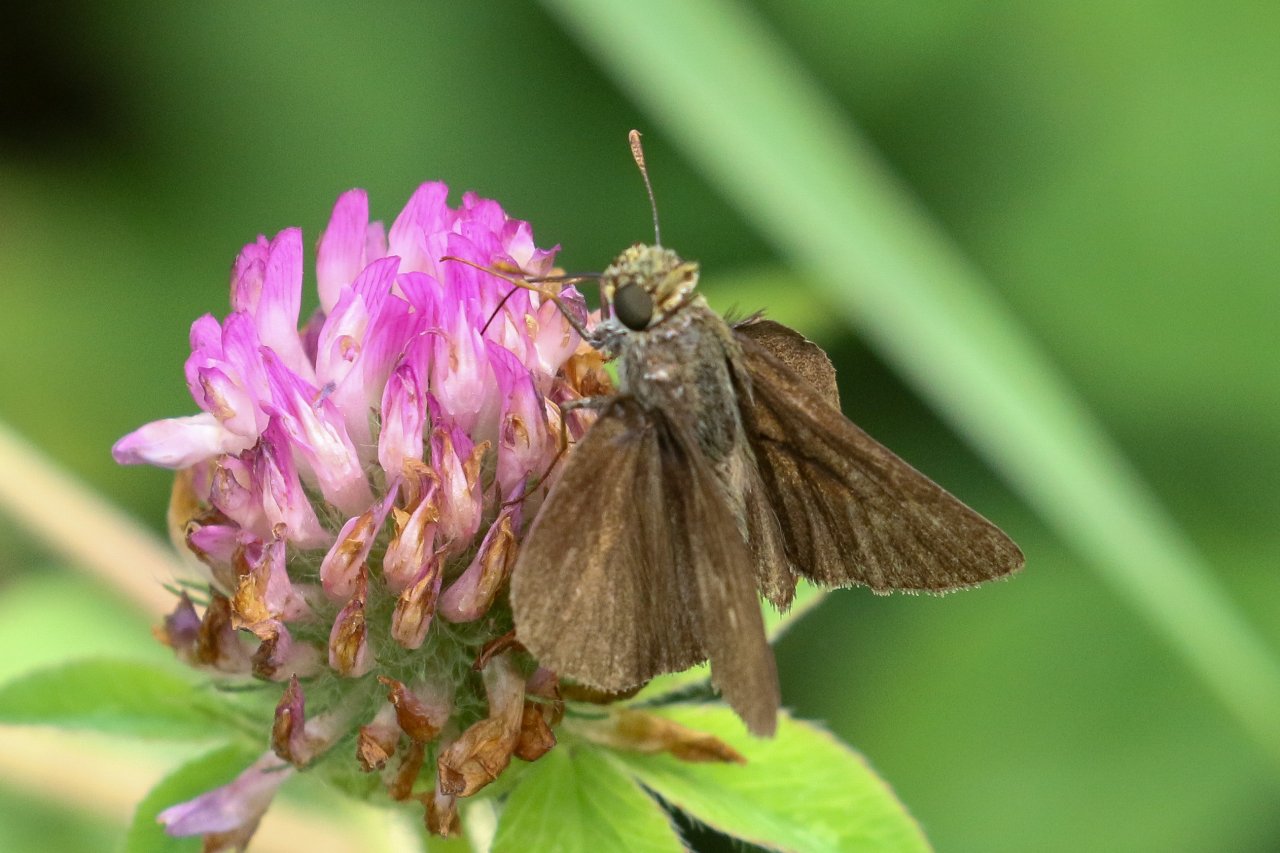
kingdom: Animalia
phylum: Arthropoda
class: Insecta
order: Lepidoptera
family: Hesperiidae
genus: Euphyes
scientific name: Euphyes vestris
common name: Dun Skipper
